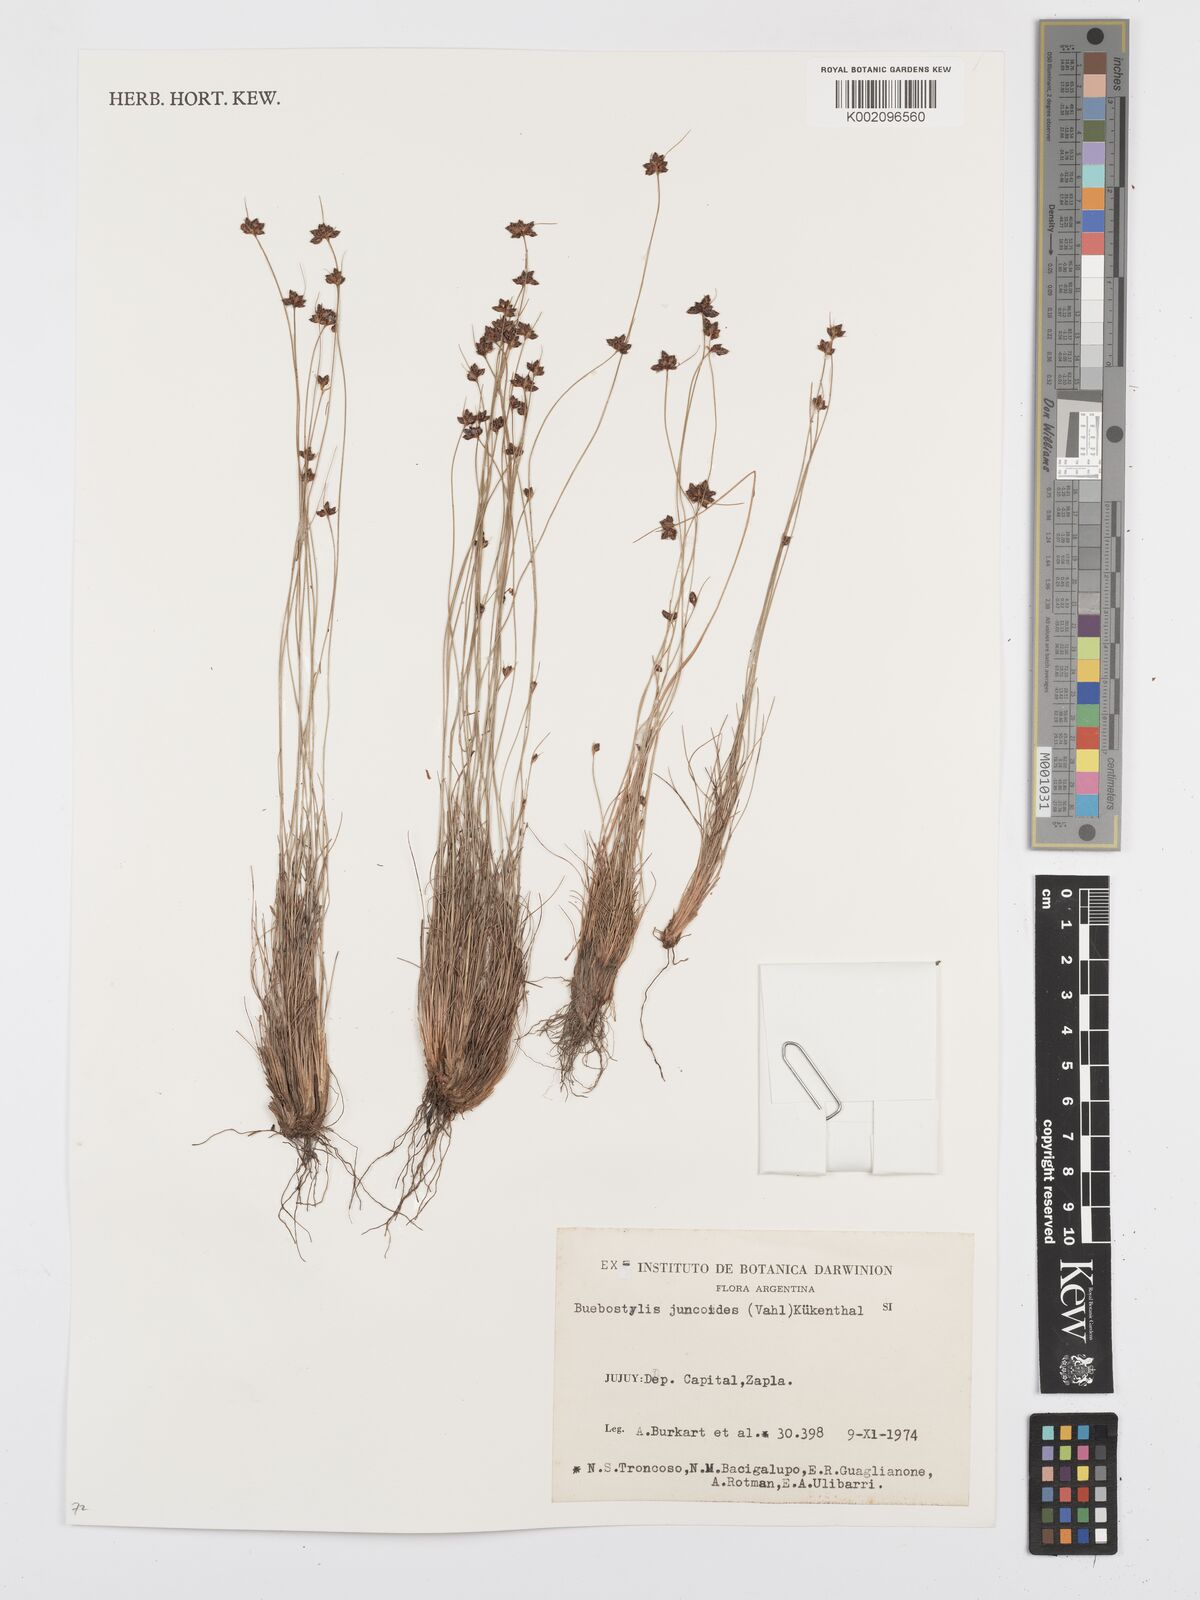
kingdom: Plantae
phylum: Tracheophyta
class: Liliopsida
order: Poales
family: Cyperaceae
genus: Bulbostylis
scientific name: Bulbostylis juncoides
